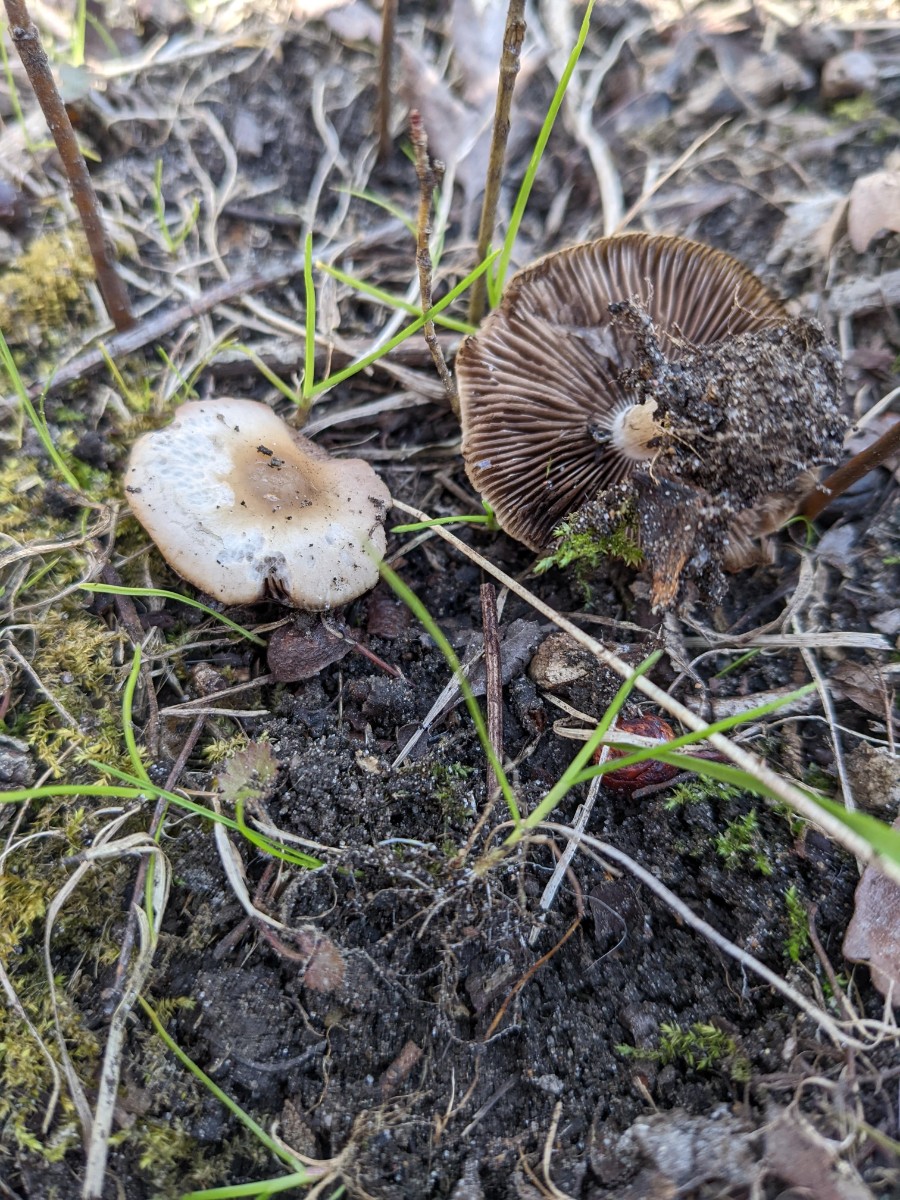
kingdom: Fungi
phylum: Basidiomycota
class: Agaricomycetes
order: Agaricales
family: Psathyrellaceae
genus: Psathyrella
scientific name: Psathyrella spadiceogrisea
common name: gråbrun mørkhat
